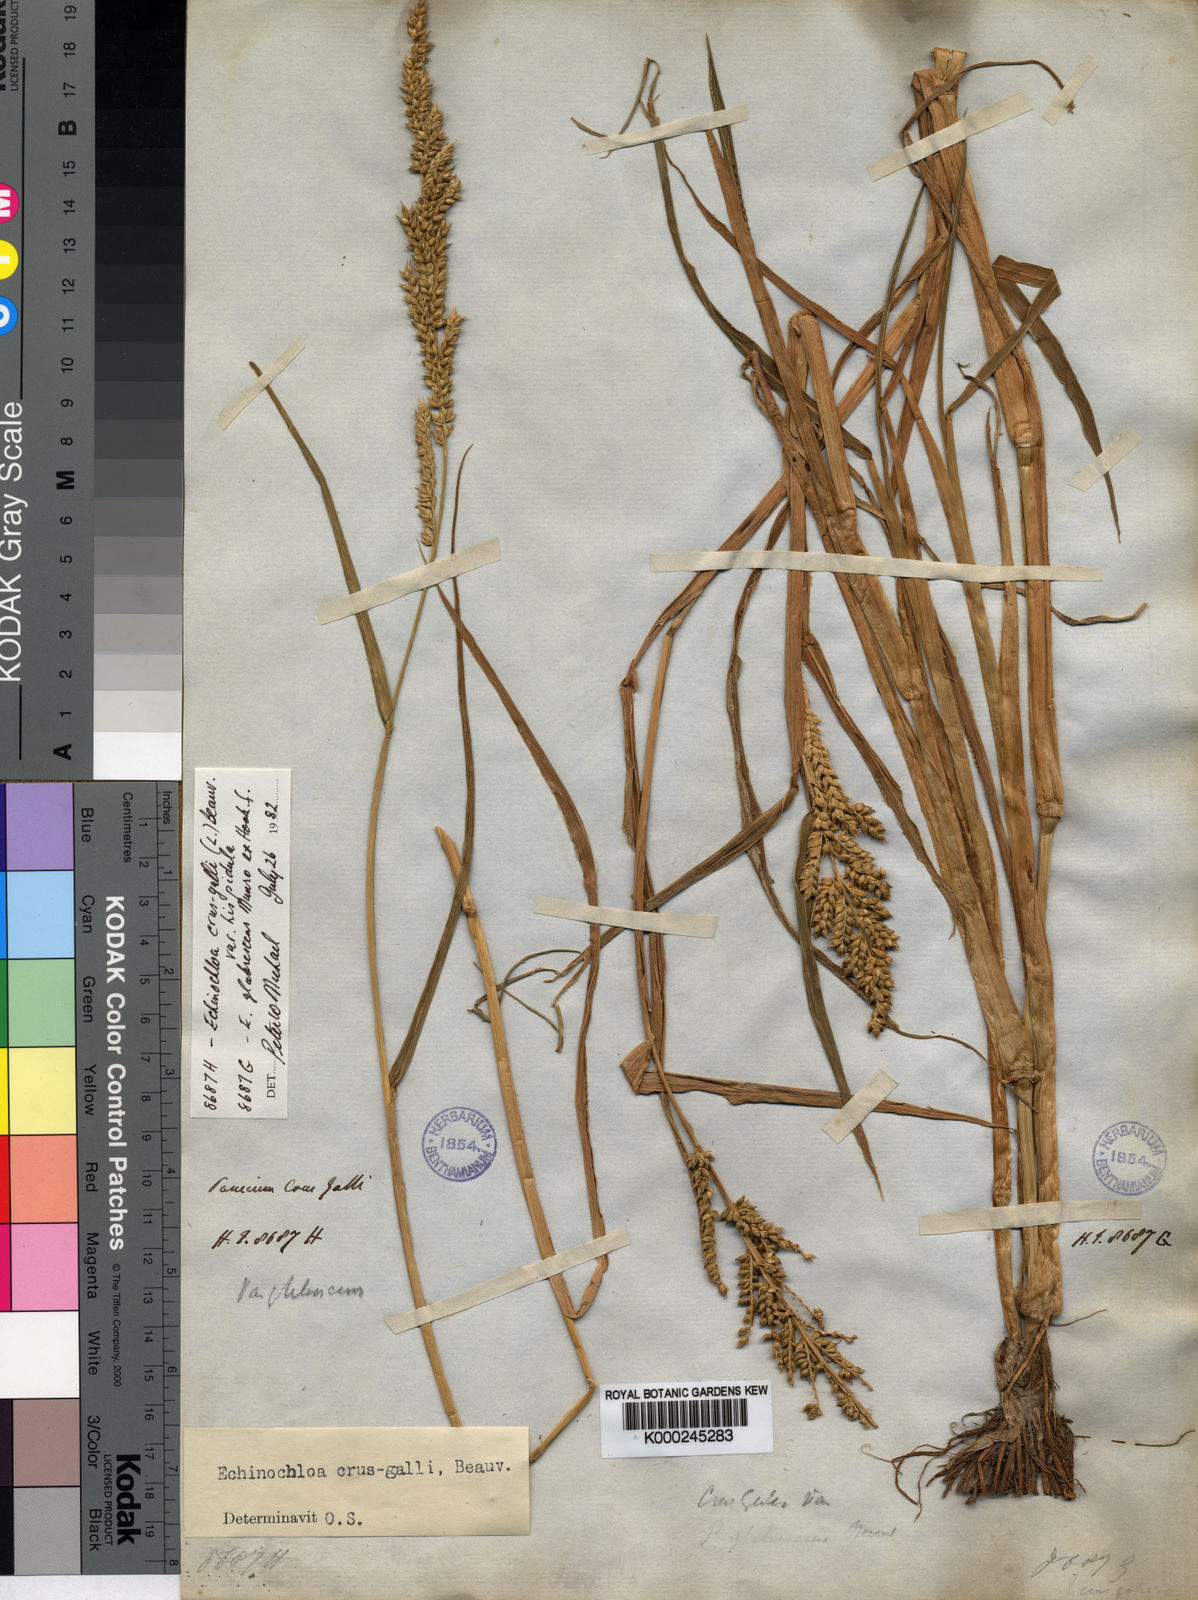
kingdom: Plantae
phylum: Tracheophyta
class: Liliopsida
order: Poales
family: Poaceae
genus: Echinochloa
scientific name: Echinochloa crus-galli
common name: Cockspur
